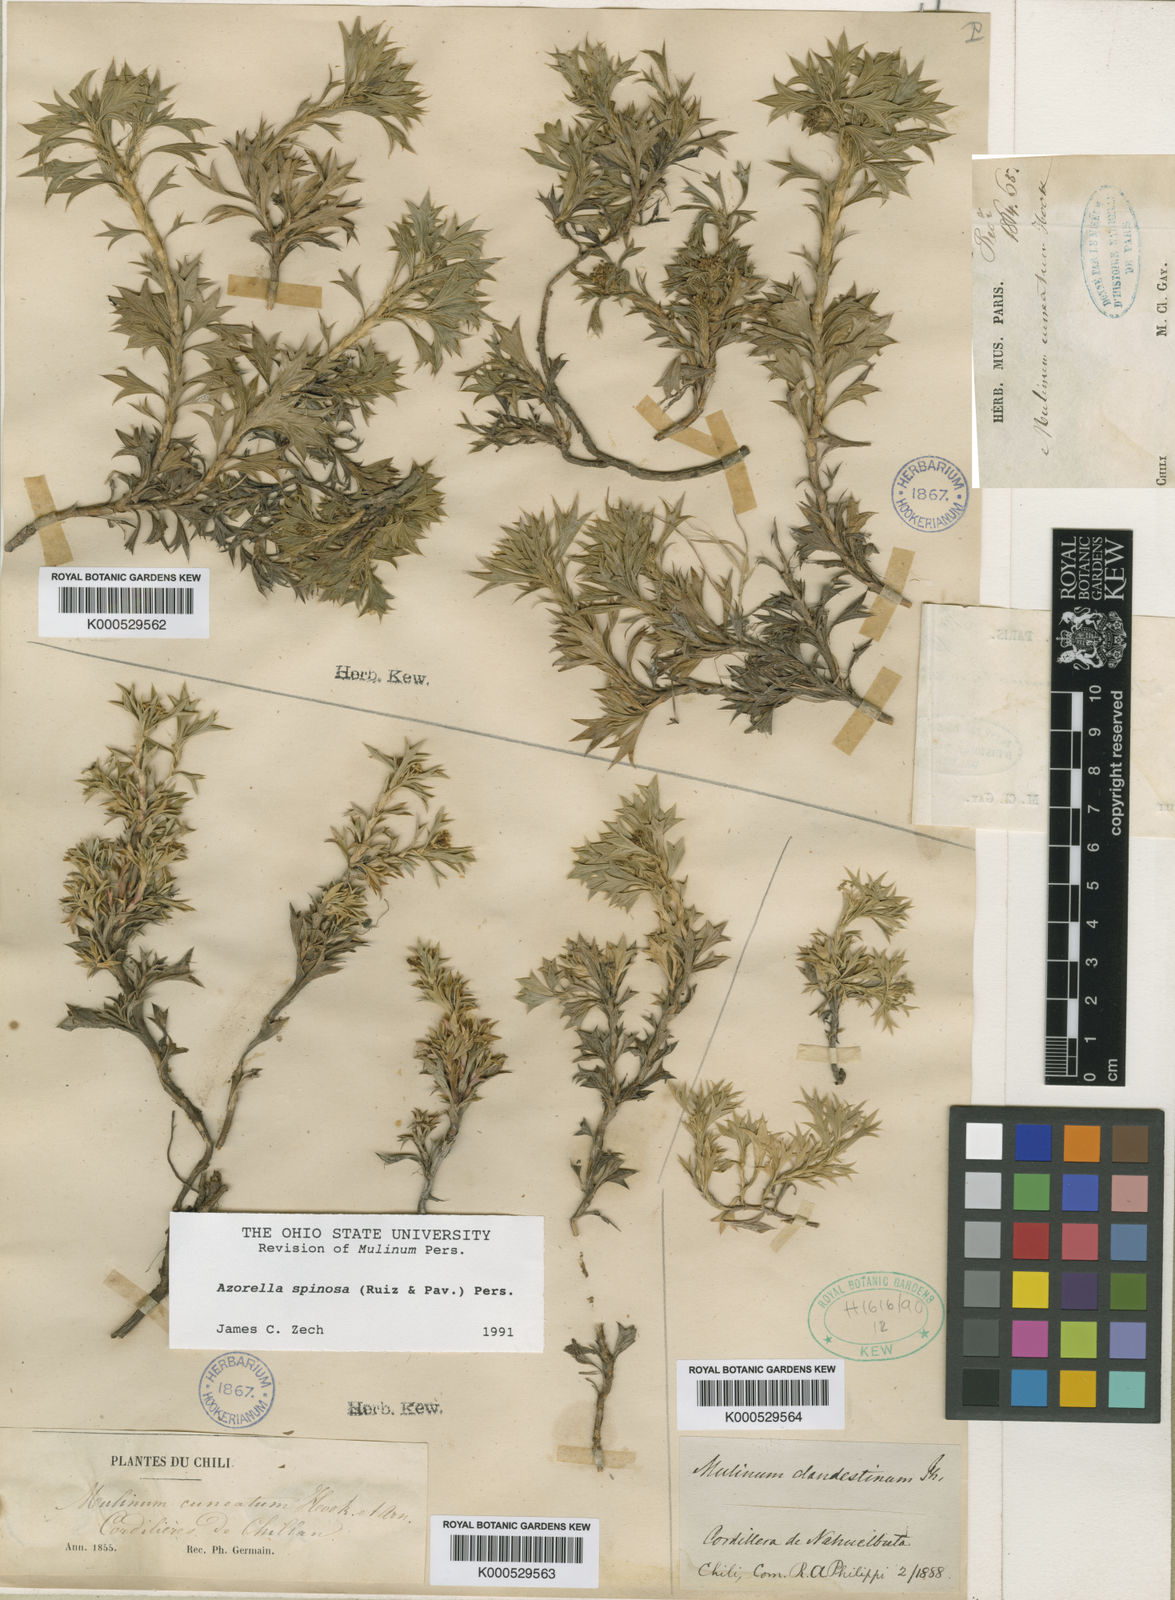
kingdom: Plantae
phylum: Tracheophyta
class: Magnoliopsida
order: Apiales
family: Apiaceae
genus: Azorella
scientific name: Azorella spinosa
